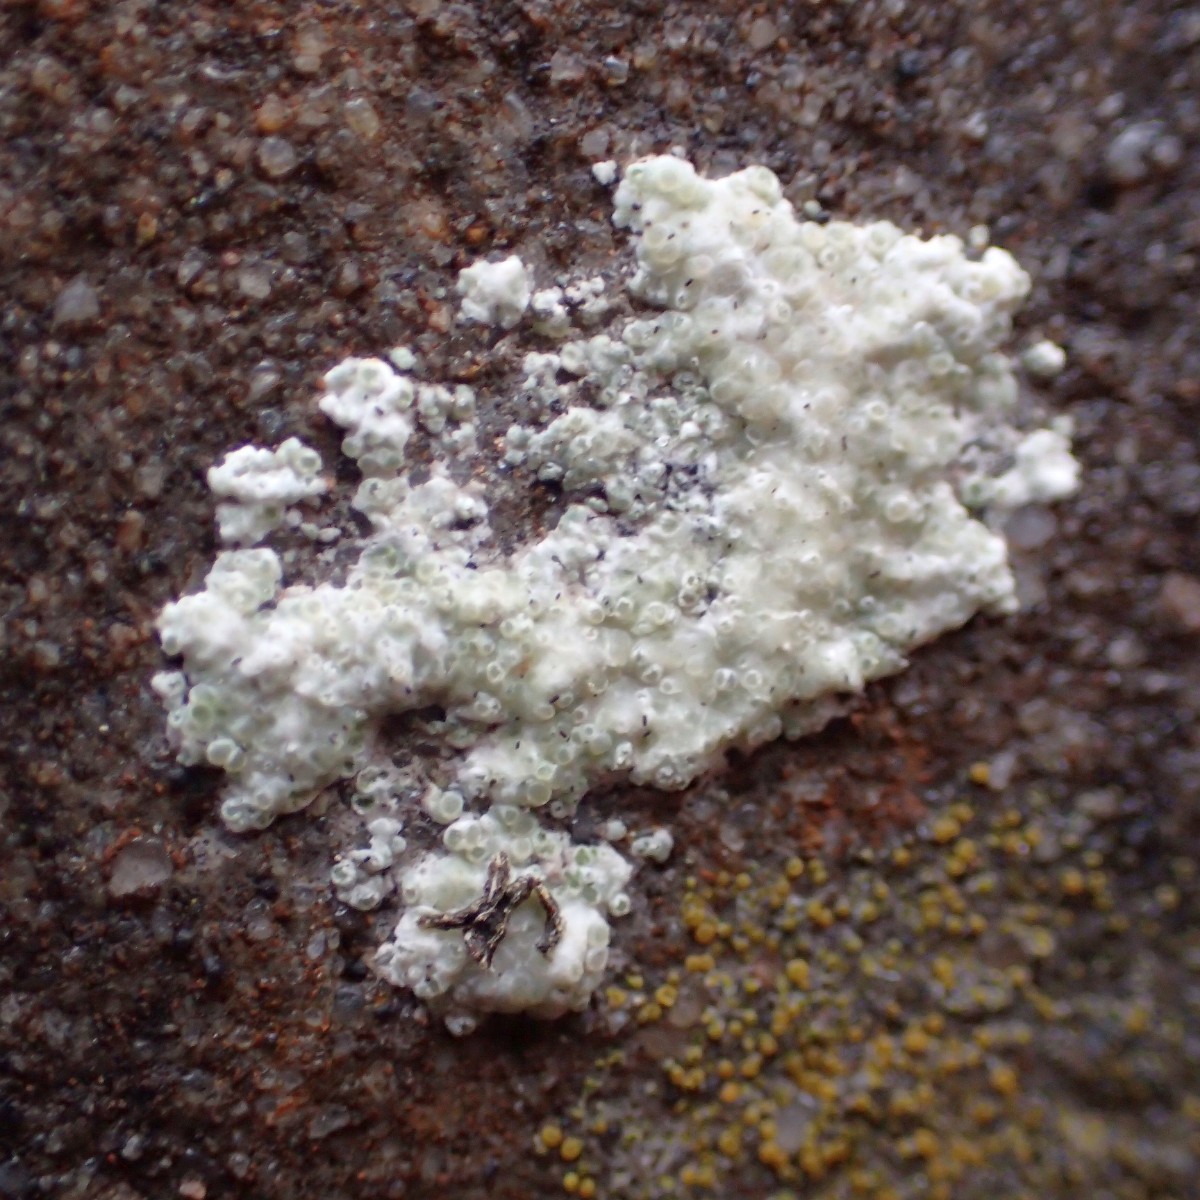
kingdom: Fungi
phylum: Ascomycota
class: Lecanoromycetes
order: Lecanorales
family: Lecanoraceae
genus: Polyozosia
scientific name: Polyozosia albescens
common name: cement-kantskivelav
